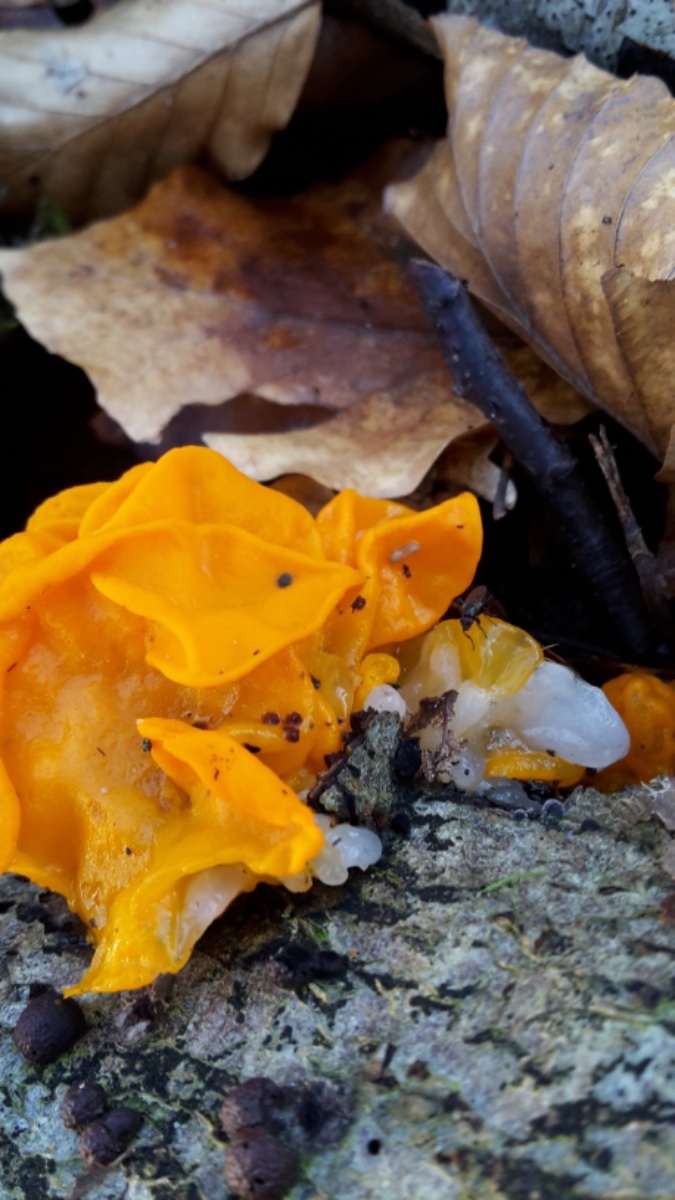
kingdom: Fungi
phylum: Basidiomycota
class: Tremellomycetes
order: Tremellales
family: Tremellaceae
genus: Tremella
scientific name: Tremella mesenterica
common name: gul bævresvamp
